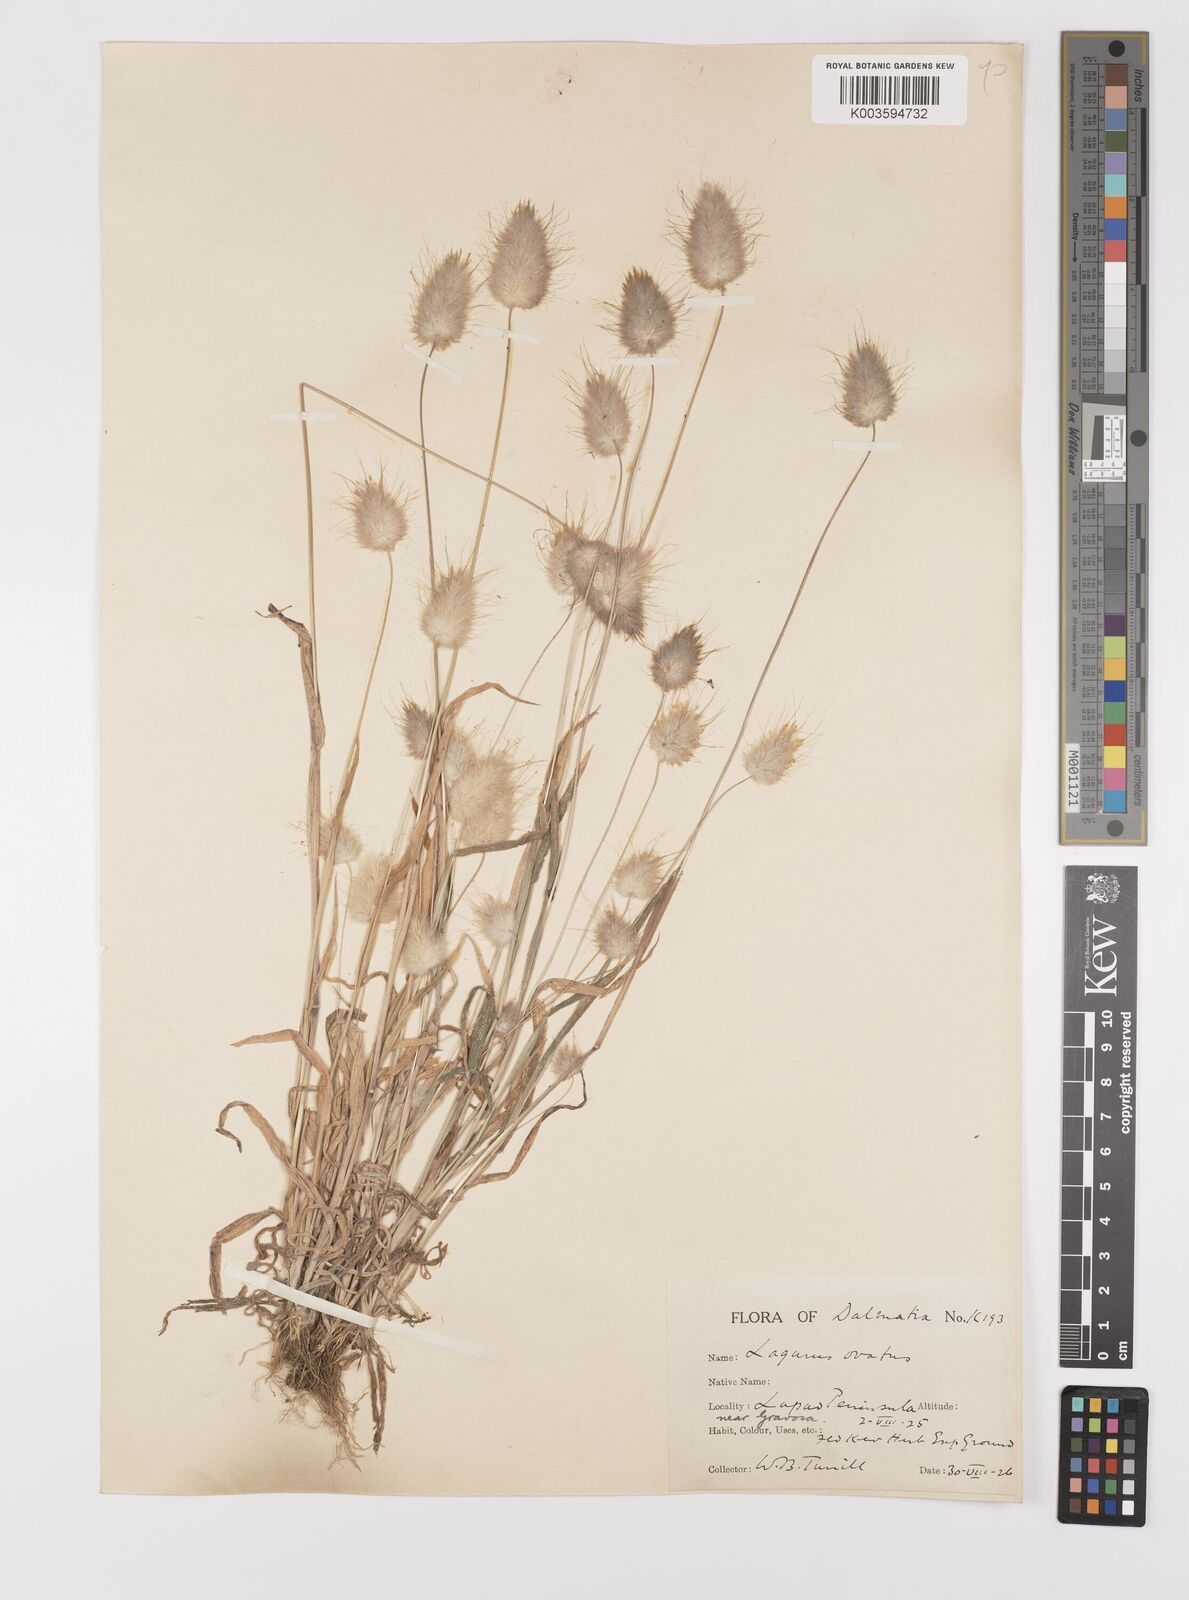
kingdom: Plantae
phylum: Tracheophyta
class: Liliopsida
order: Poales
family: Poaceae
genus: Lagurus
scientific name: Lagurus ovatus
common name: Hare's-tail
